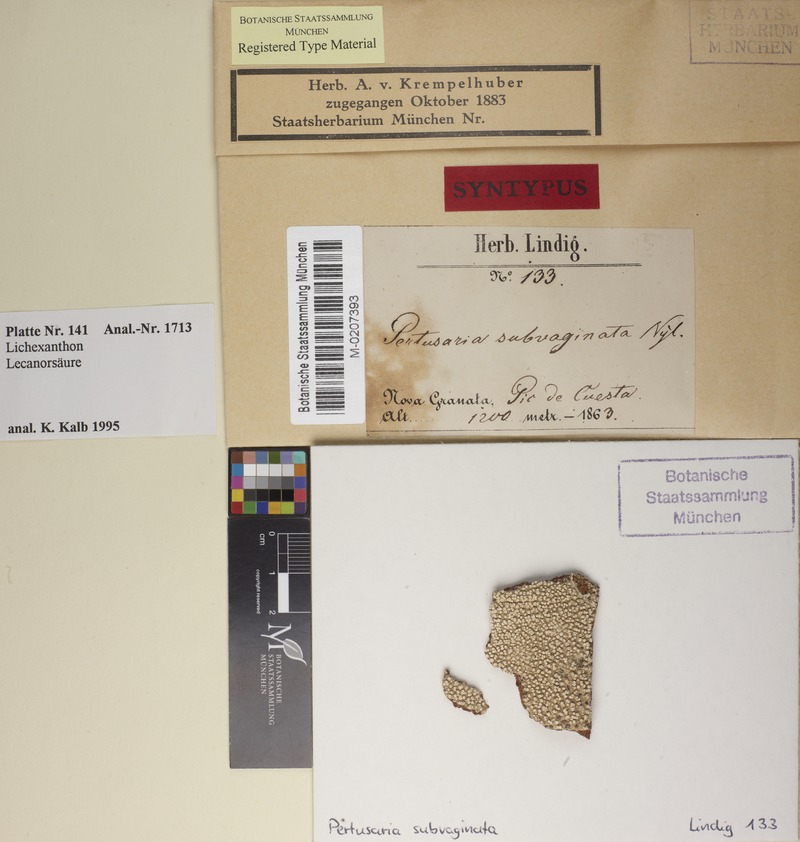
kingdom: Fungi
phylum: Ascomycota
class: Lecanoromycetes
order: Pertusariales
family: Pertusariaceae
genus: Pertusaria
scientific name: Pertusaria subvaginata
